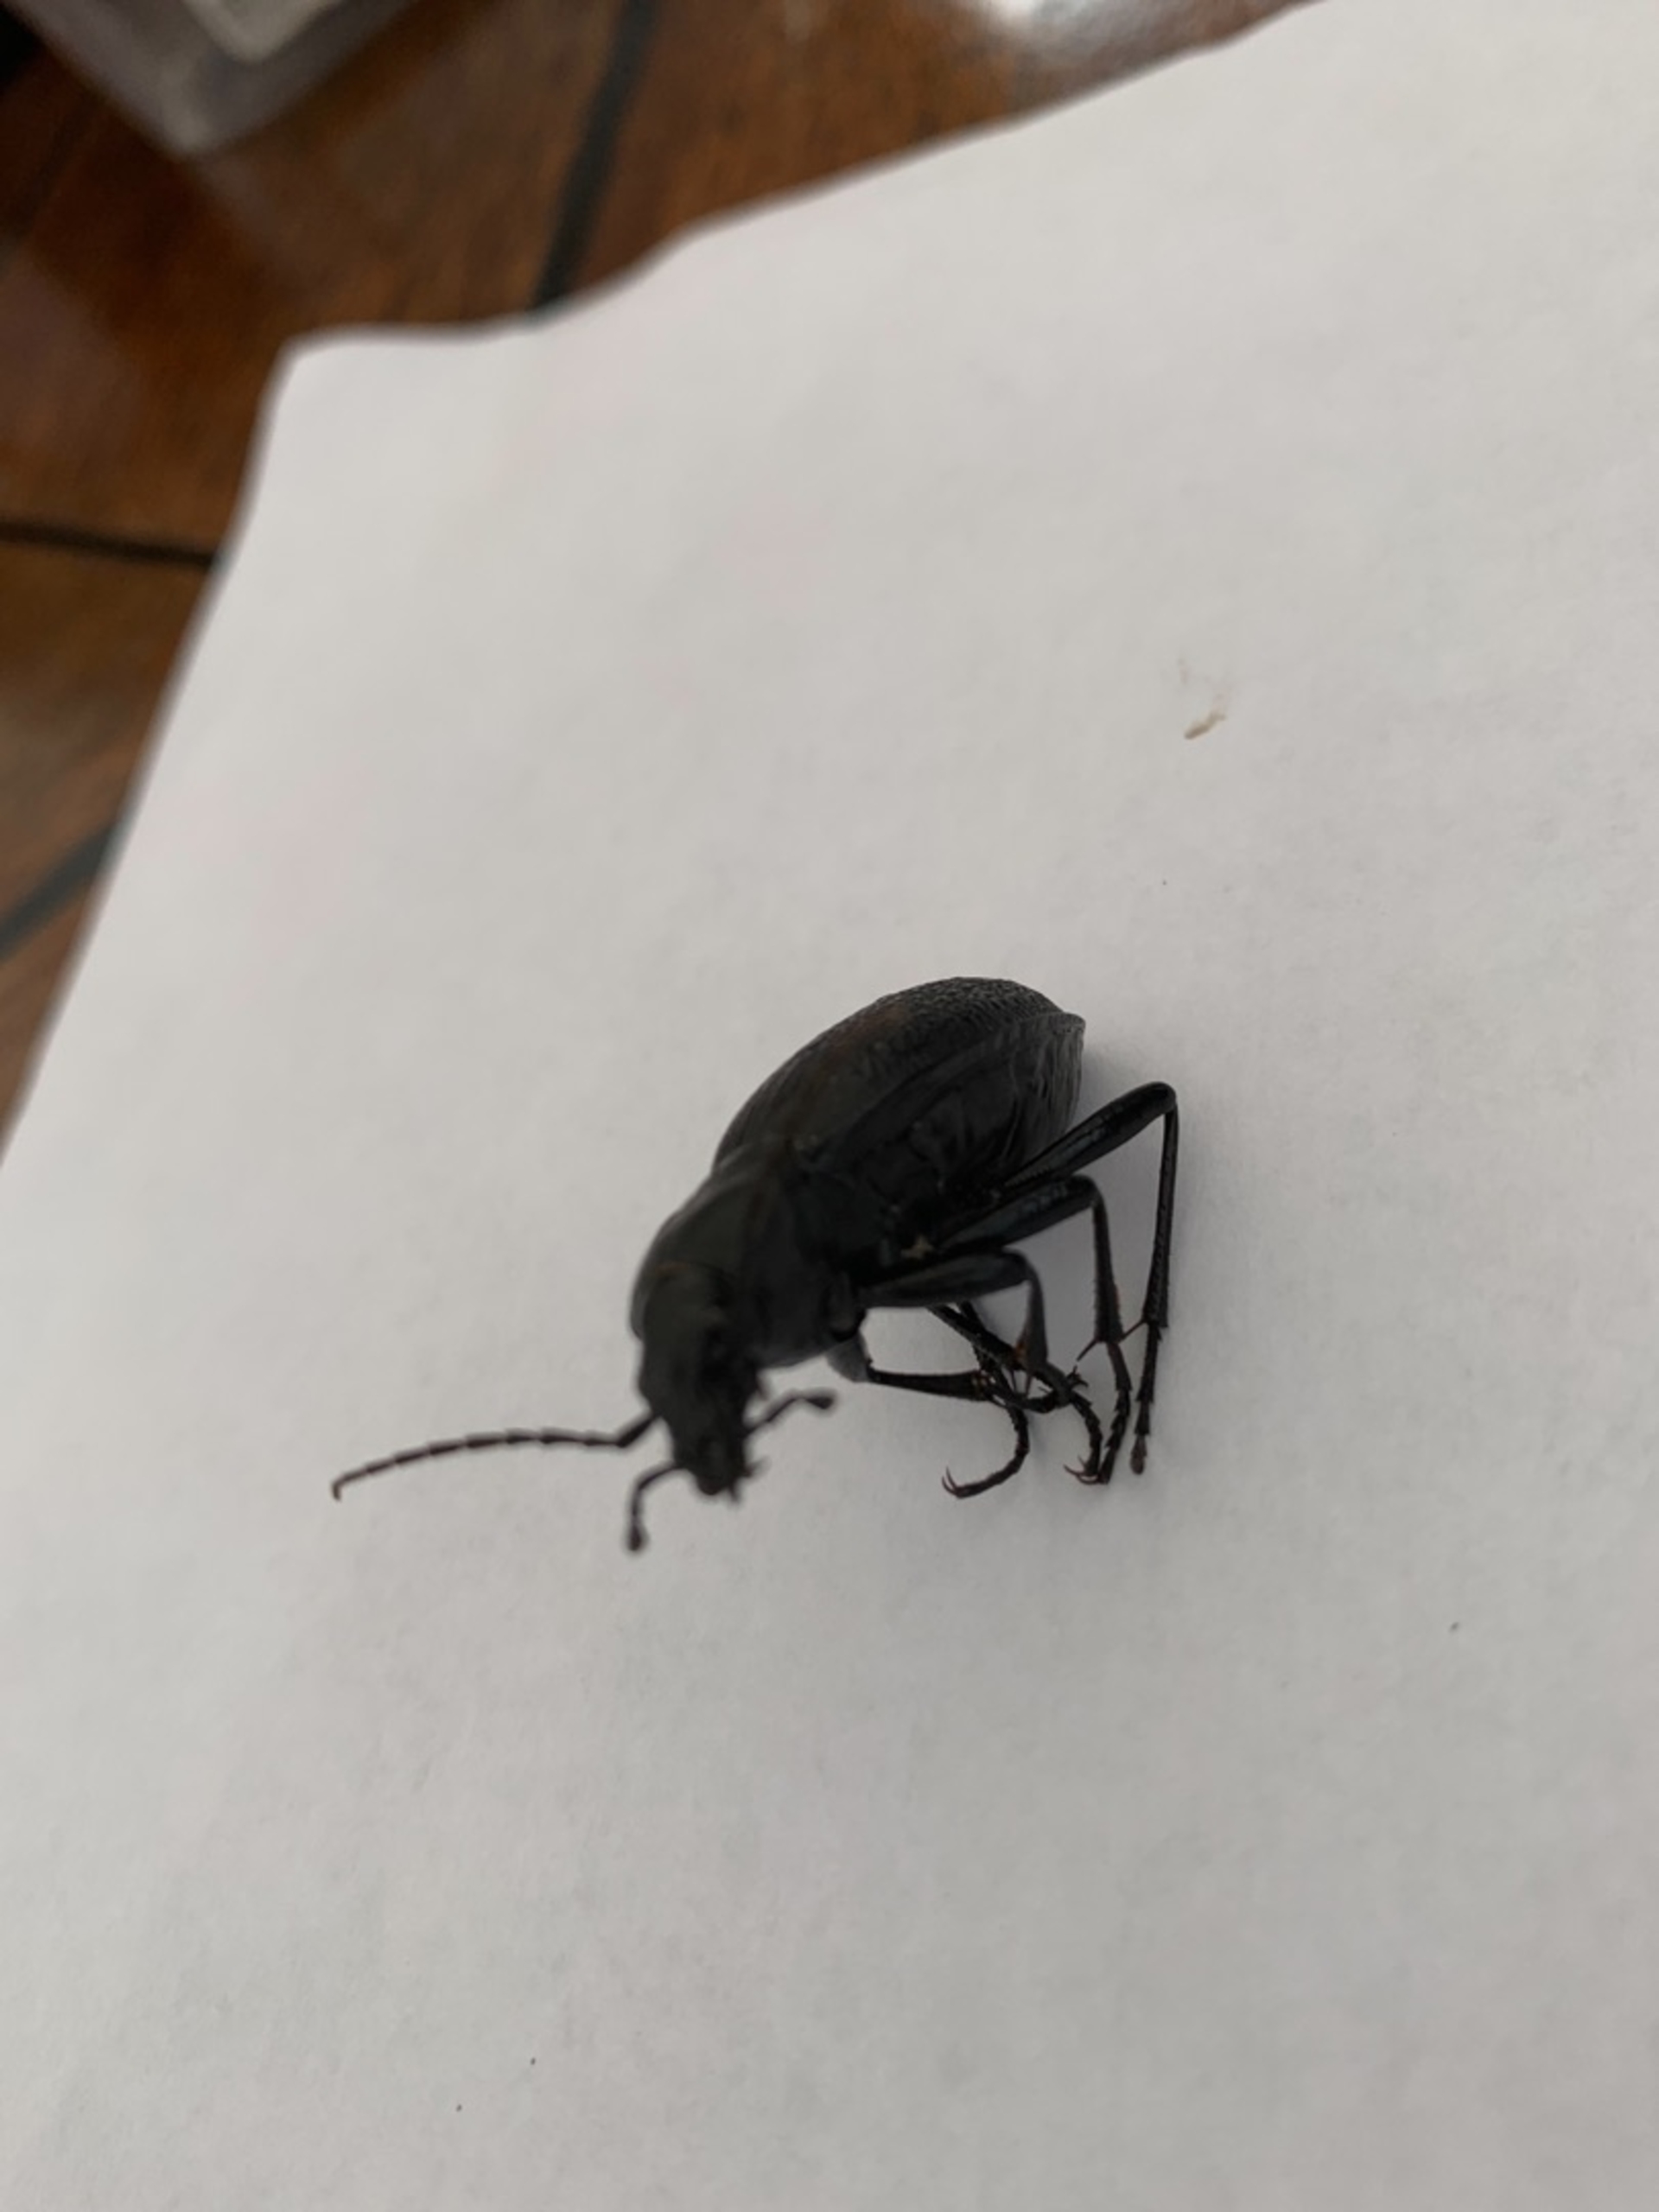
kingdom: Animalia
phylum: Arthropoda
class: Insecta
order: Coleoptera
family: Carabidae
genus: Carabus
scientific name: Carabus coriaceus
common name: Læderløber
